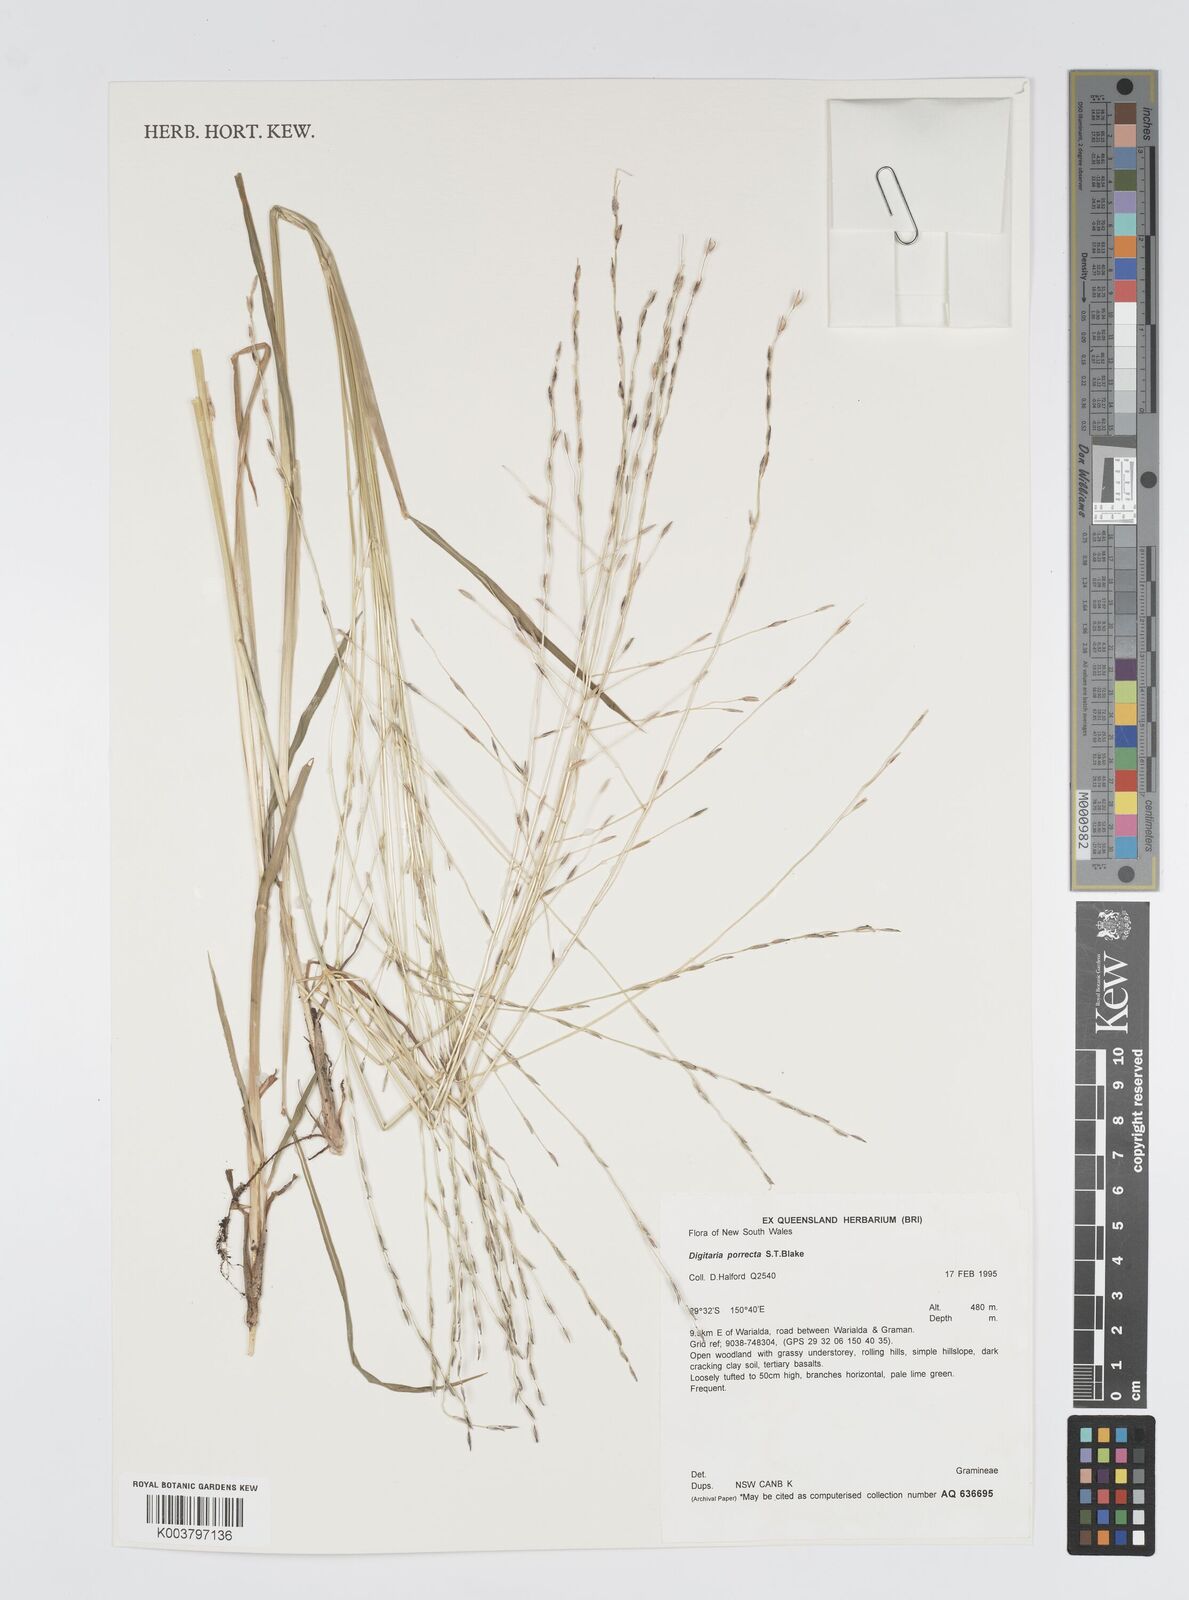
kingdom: Plantae
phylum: Tracheophyta
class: Liliopsida
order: Poales
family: Poaceae
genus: Digitaria
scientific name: Digitaria porrecta
